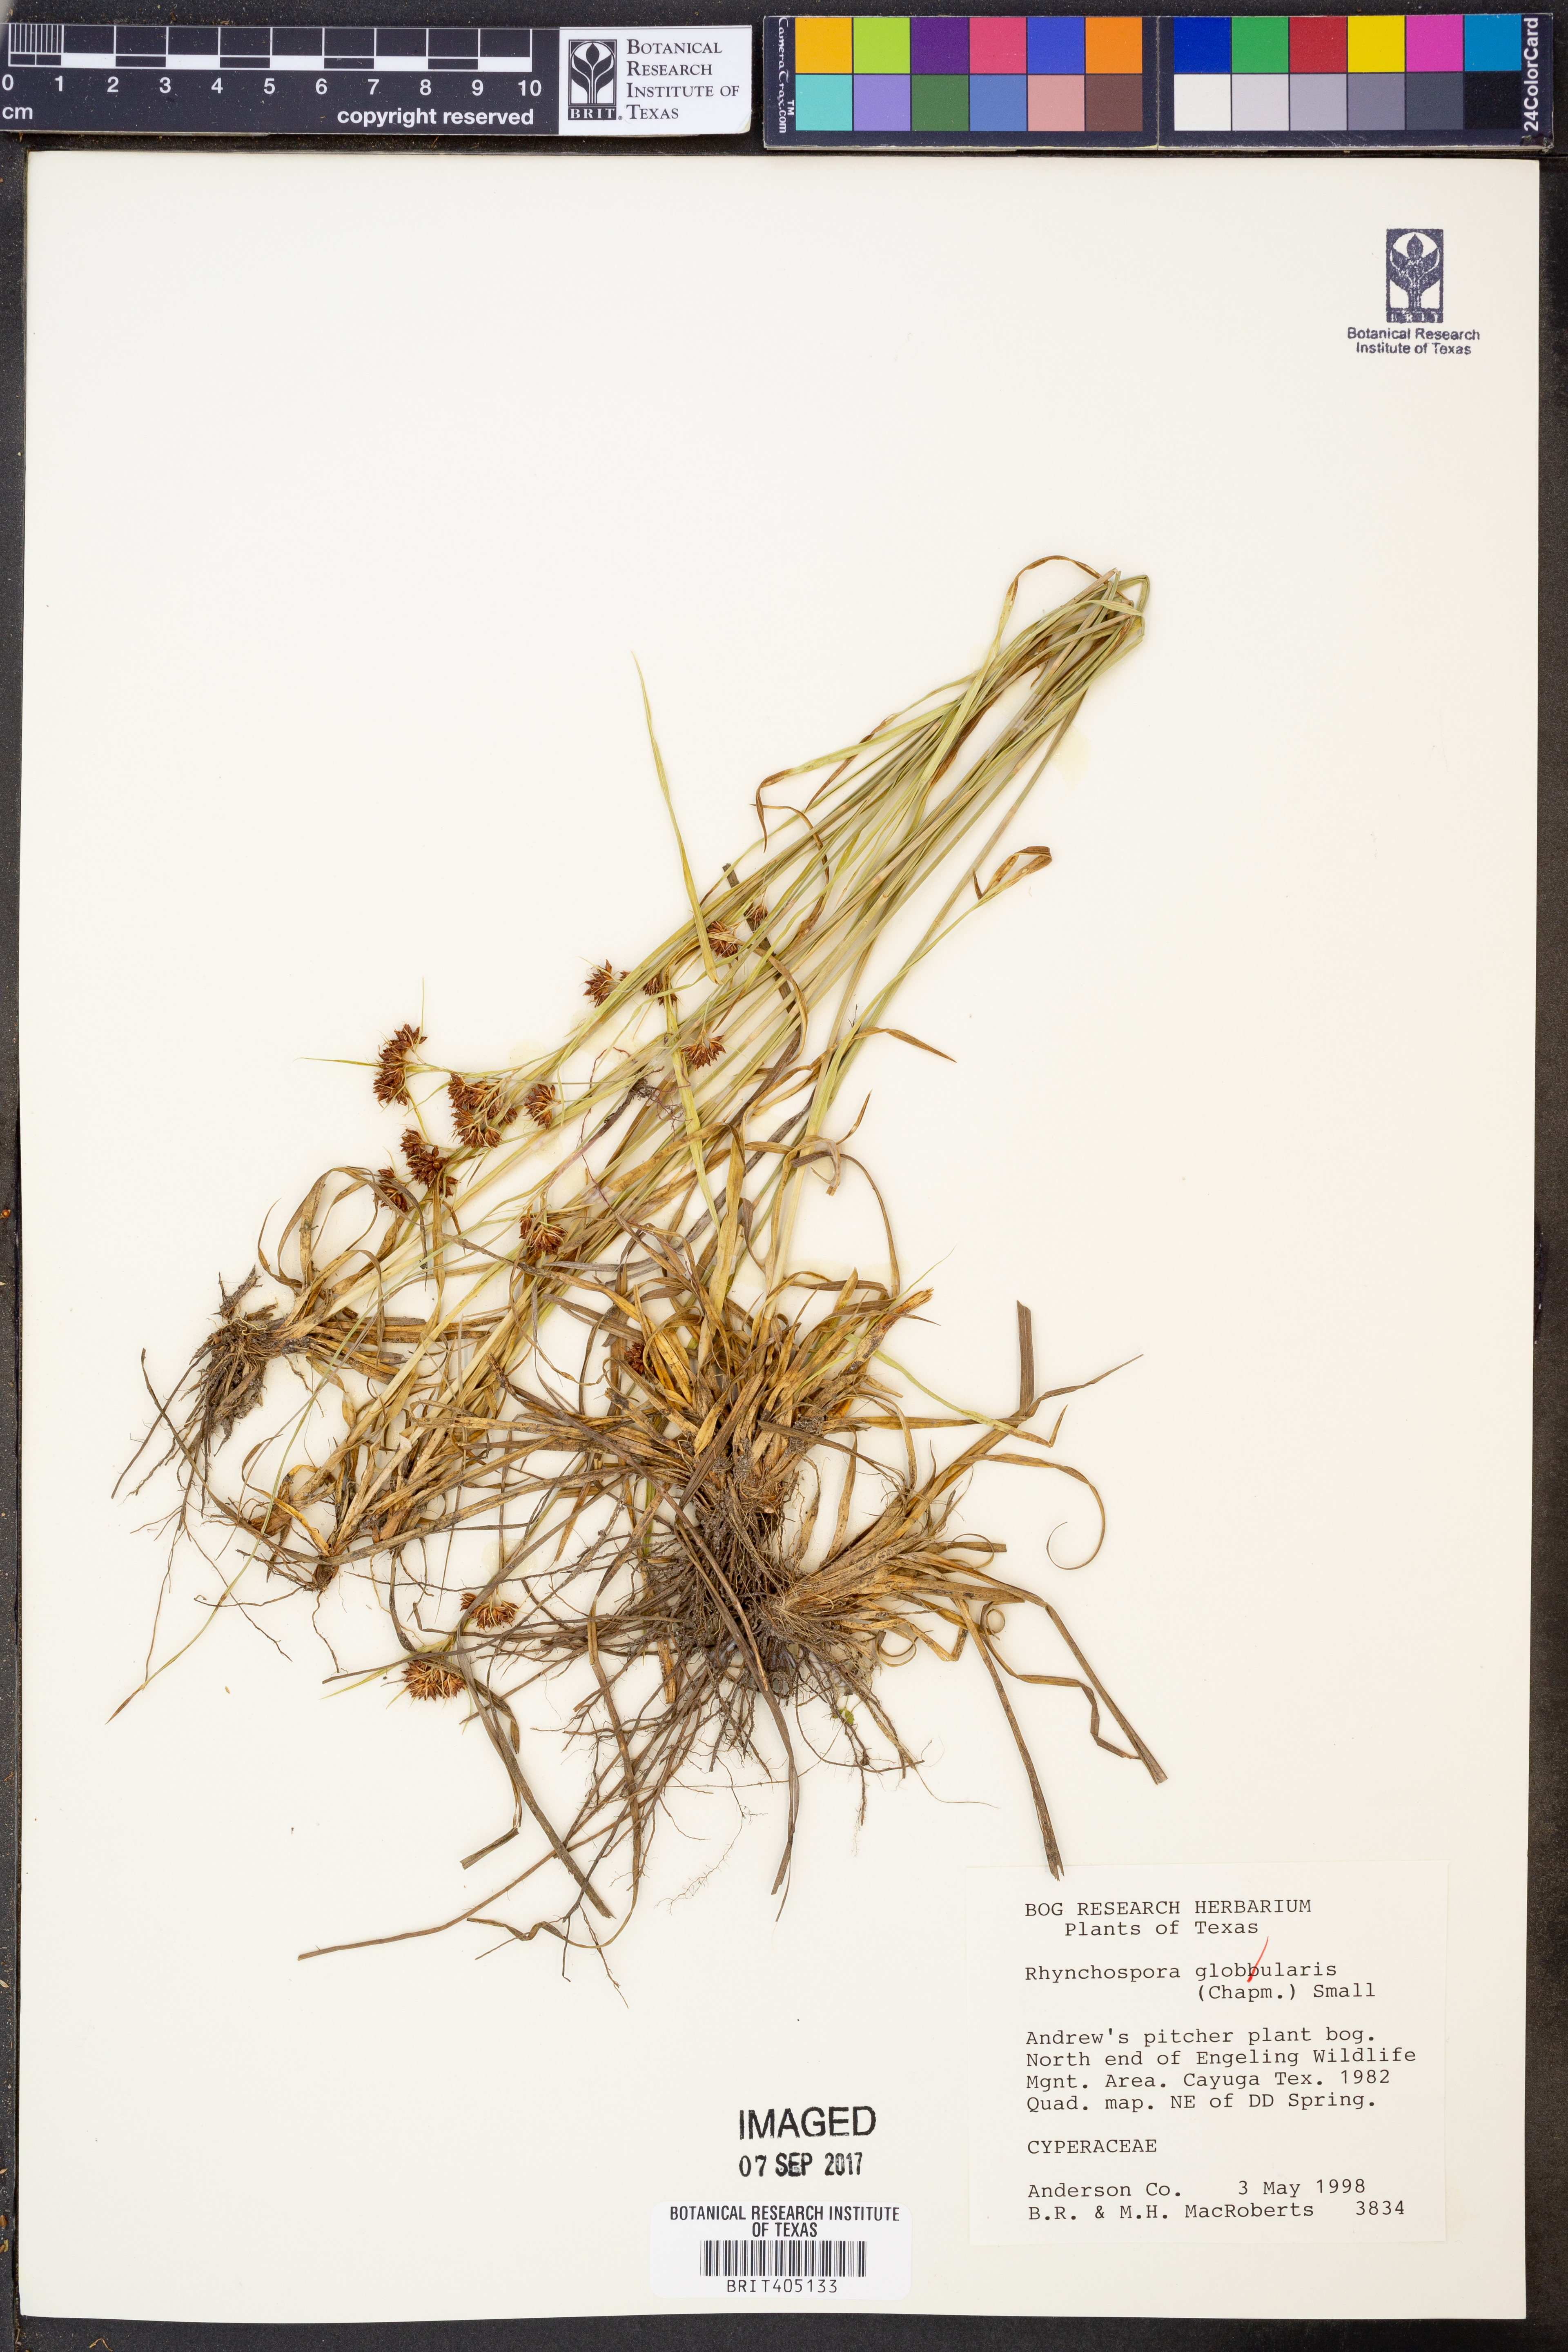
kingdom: Plantae
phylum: Tracheophyta
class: Liliopsida
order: Poales
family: Cyperaceae
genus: Rhynchospora
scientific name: Rhynchospora globularis
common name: Globe beaksedge
